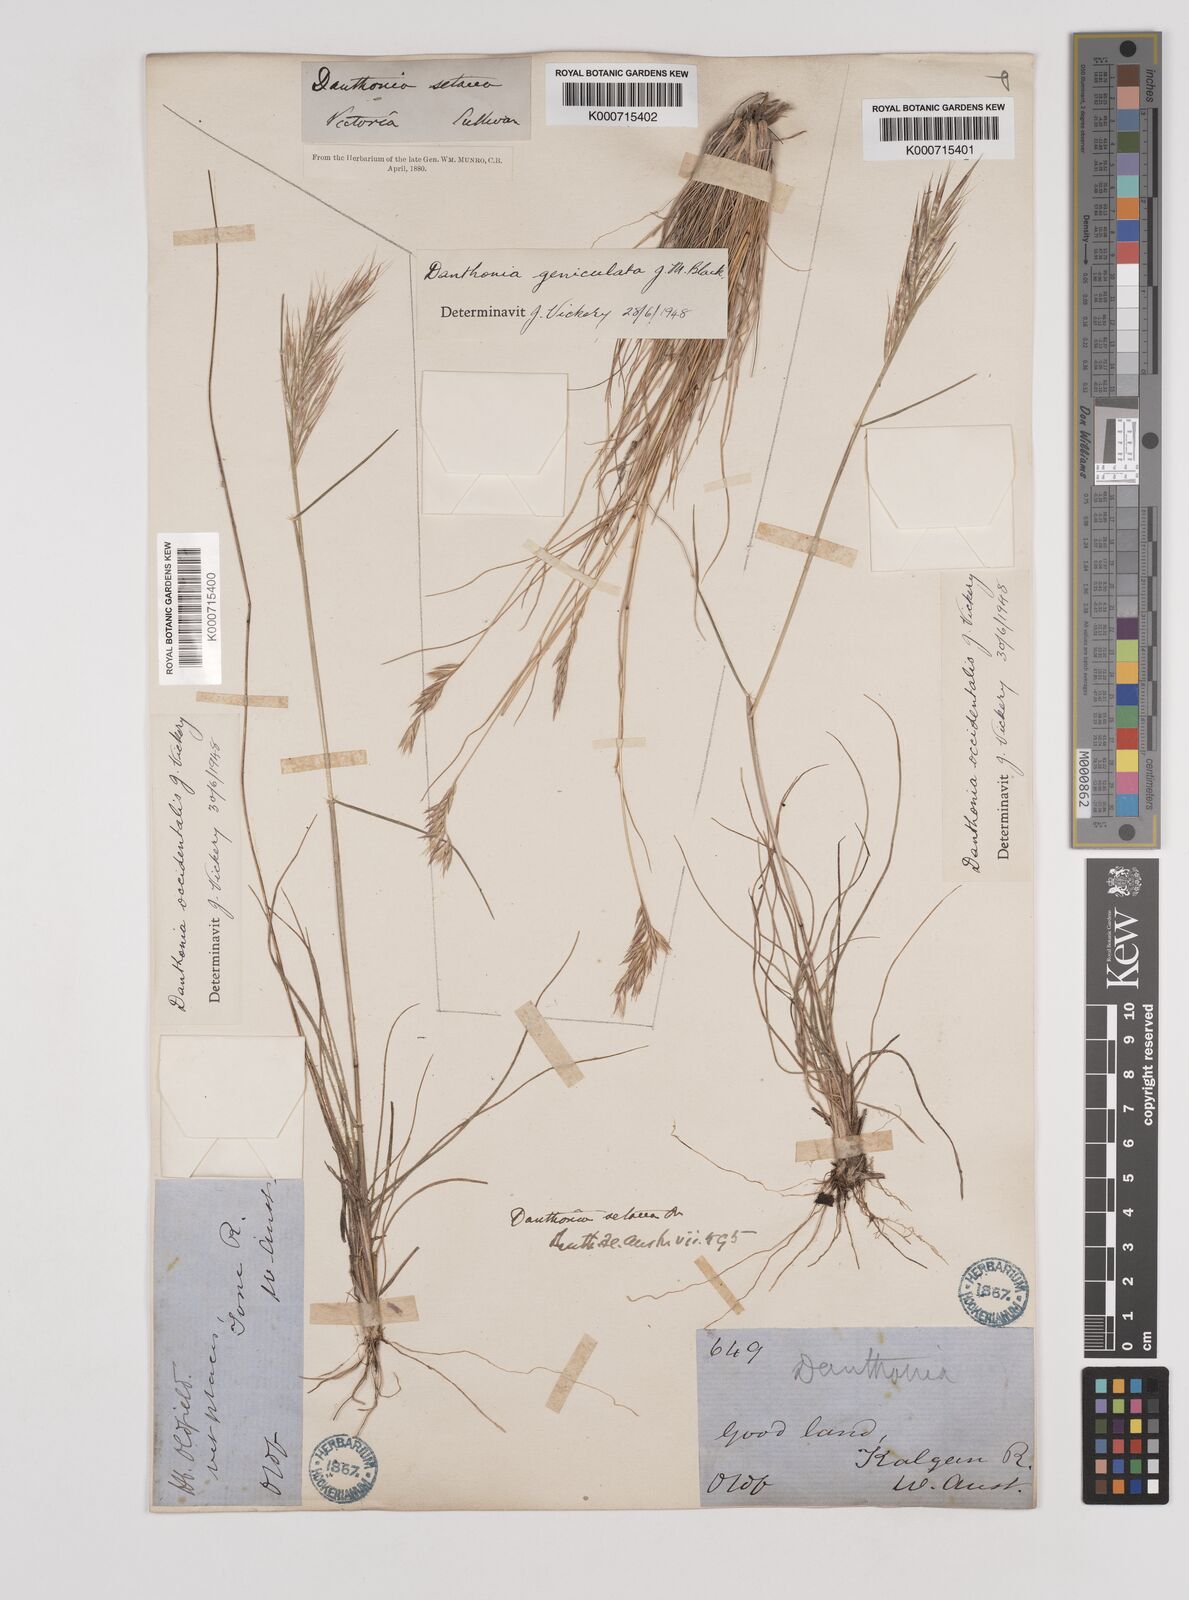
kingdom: Plantae
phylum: Tracheophyta
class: Liliopsida
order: Poales
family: Poaceae
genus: Rytidosperma
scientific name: Rytidosperma occidentale
